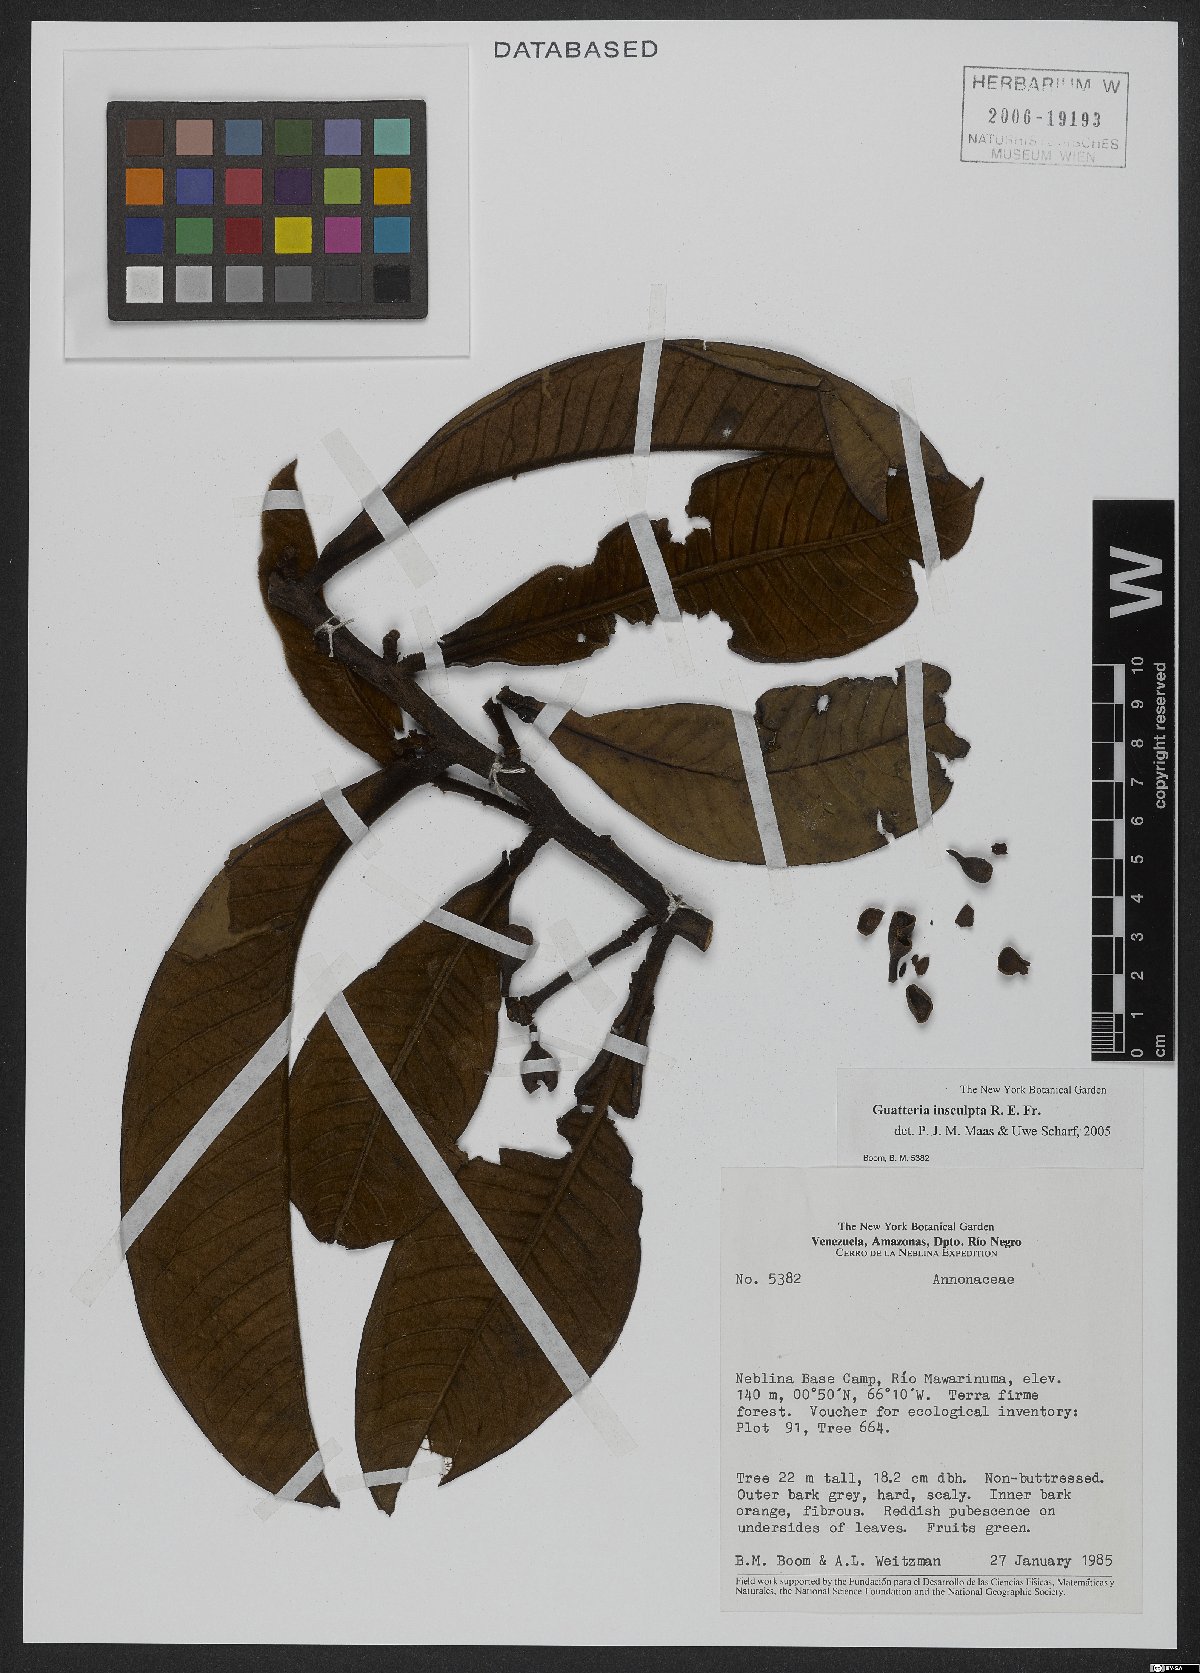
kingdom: Plantae
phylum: Tracheophyta
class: Magnoliopsida
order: Magnoliales
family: Annonaceae
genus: Guatteria
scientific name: Guatteria insculpta
